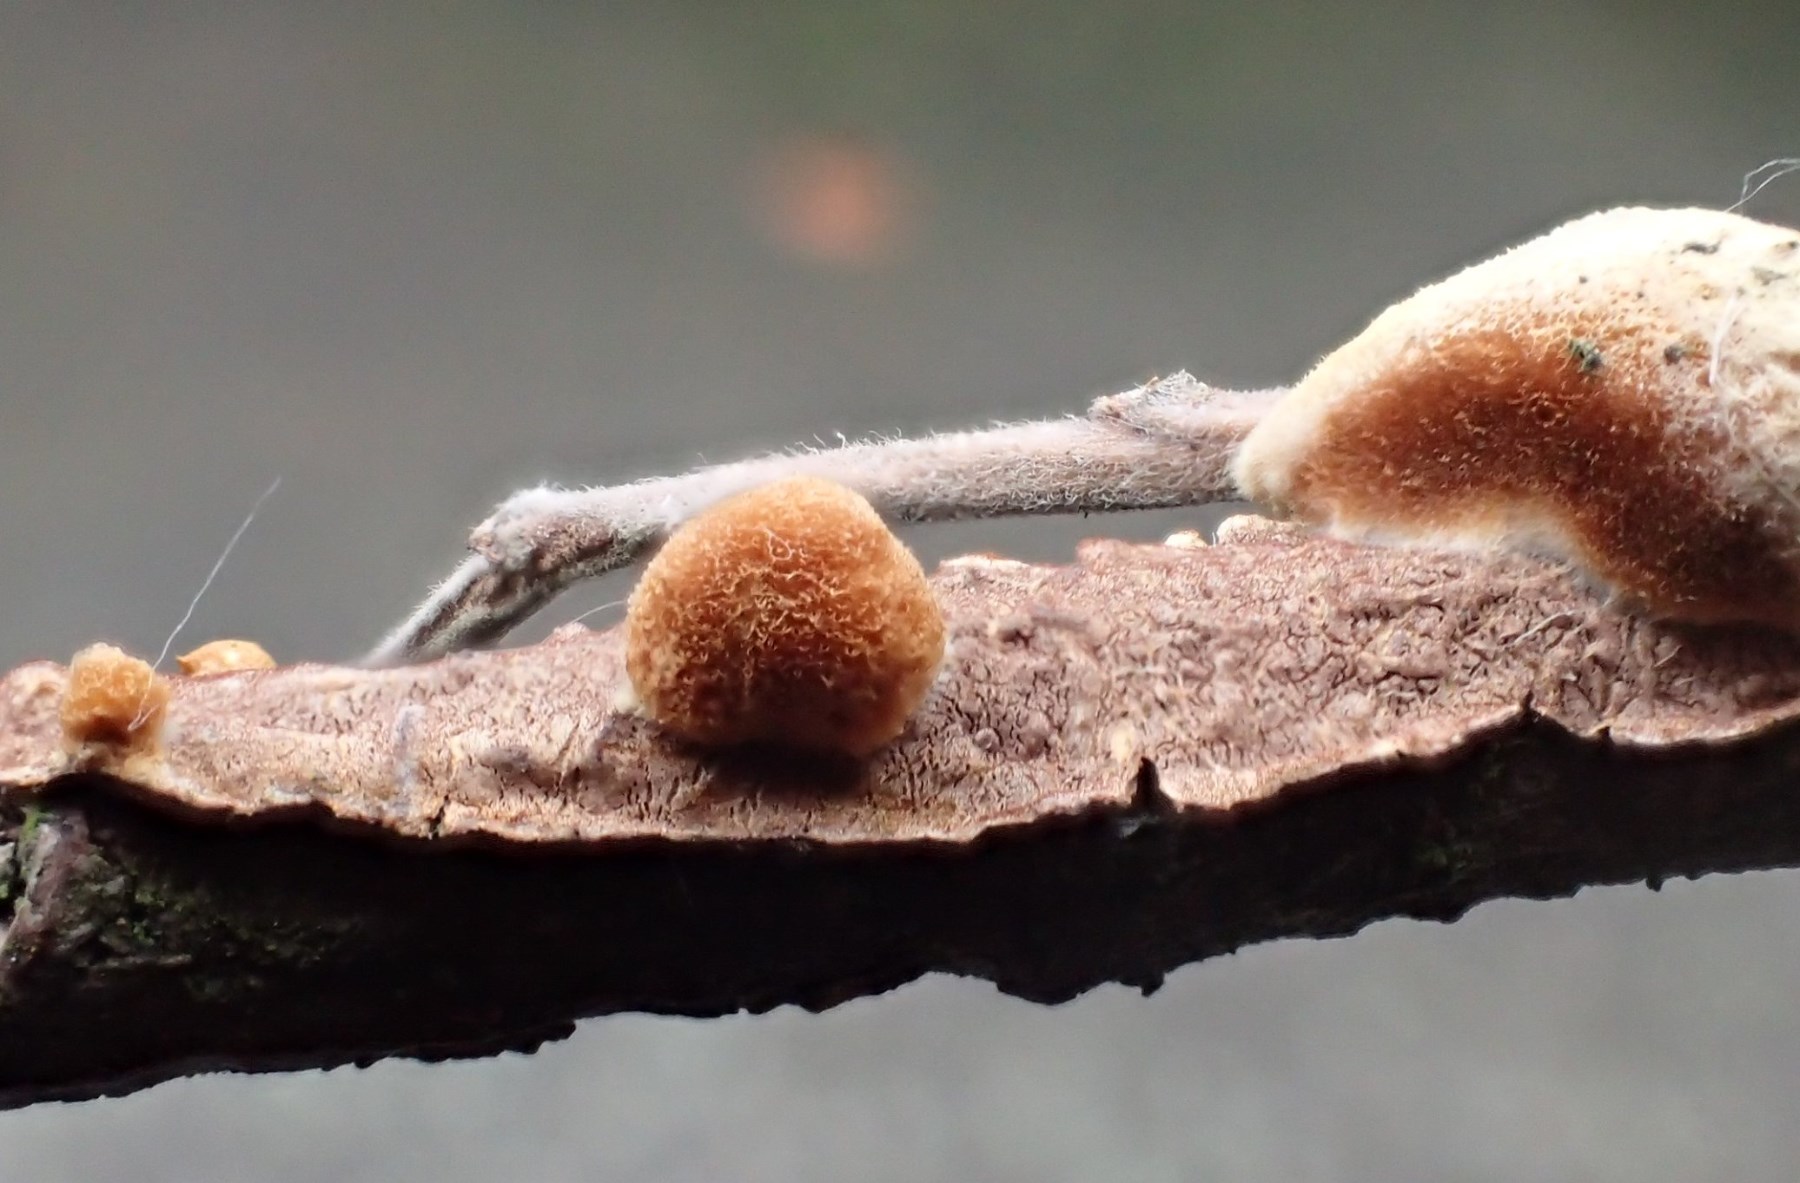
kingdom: Fungi
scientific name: Fungi
